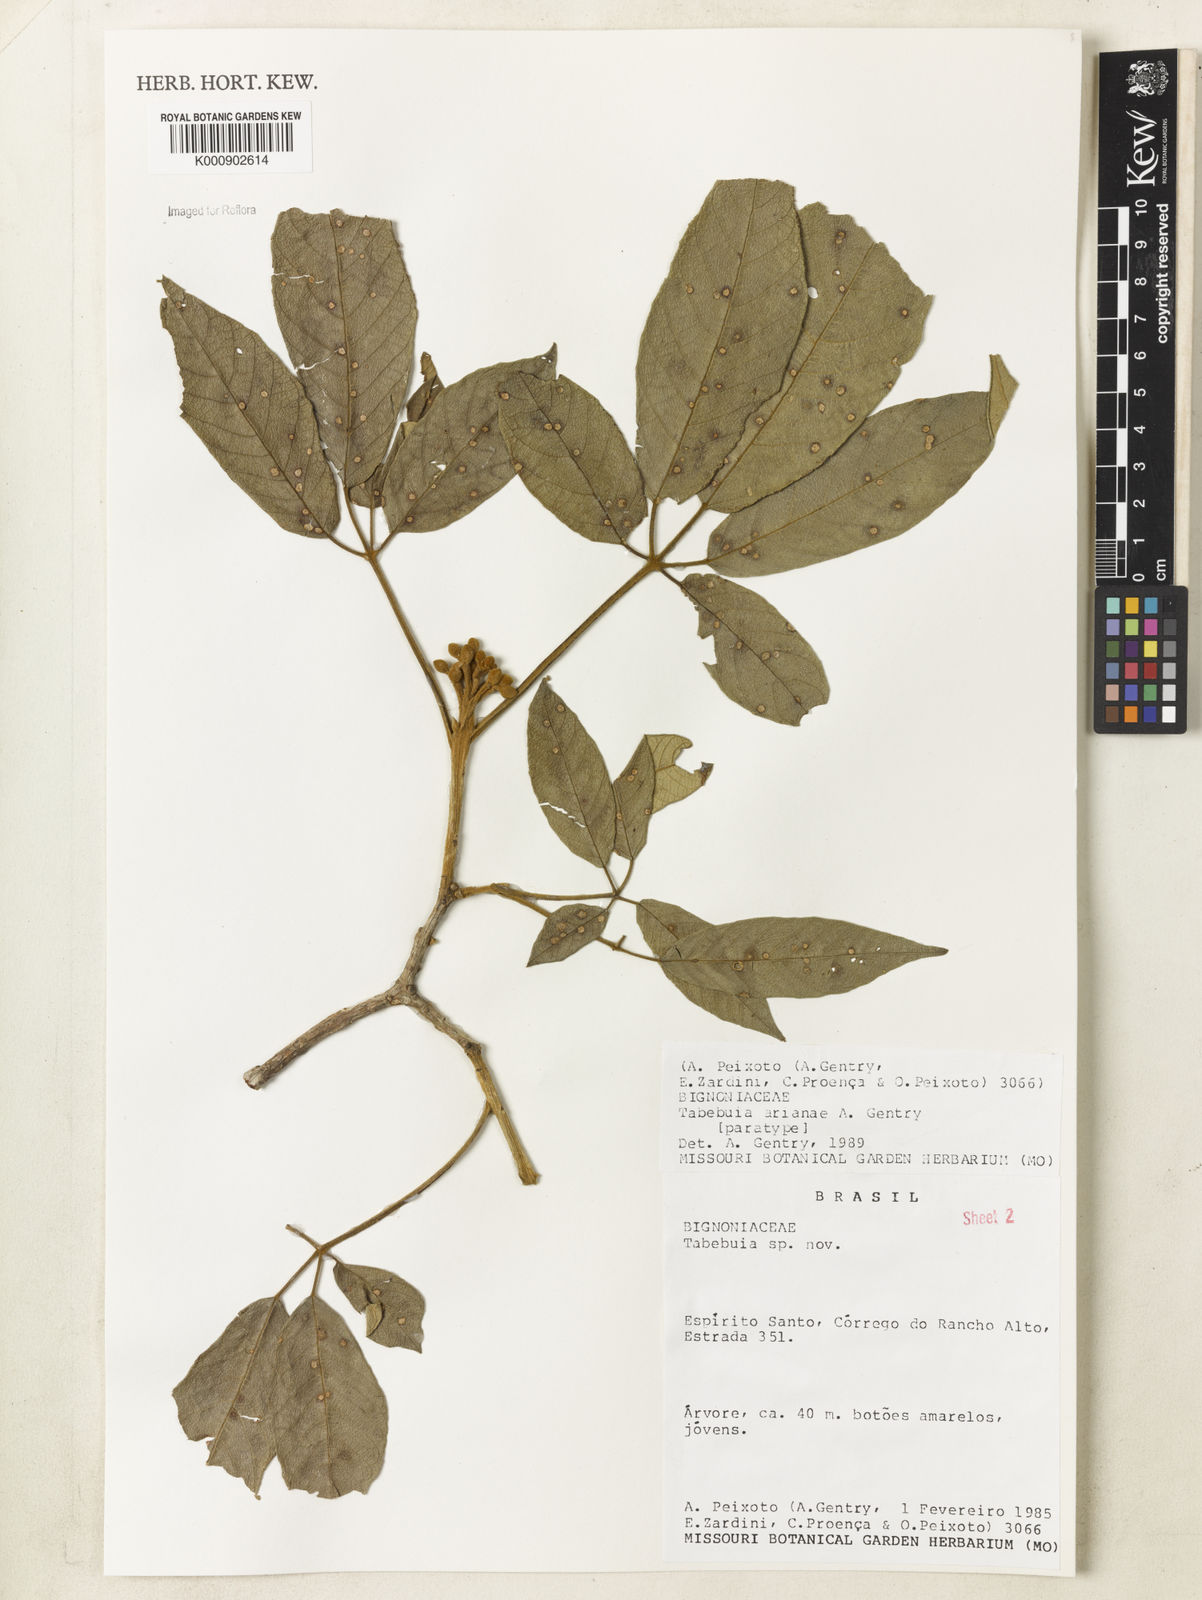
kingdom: Plantae
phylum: Tracheophyta
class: Magnoliopsida
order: Lamiales
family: Bignoniaceae
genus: Handroanthus
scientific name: Handroanthus arianeae
